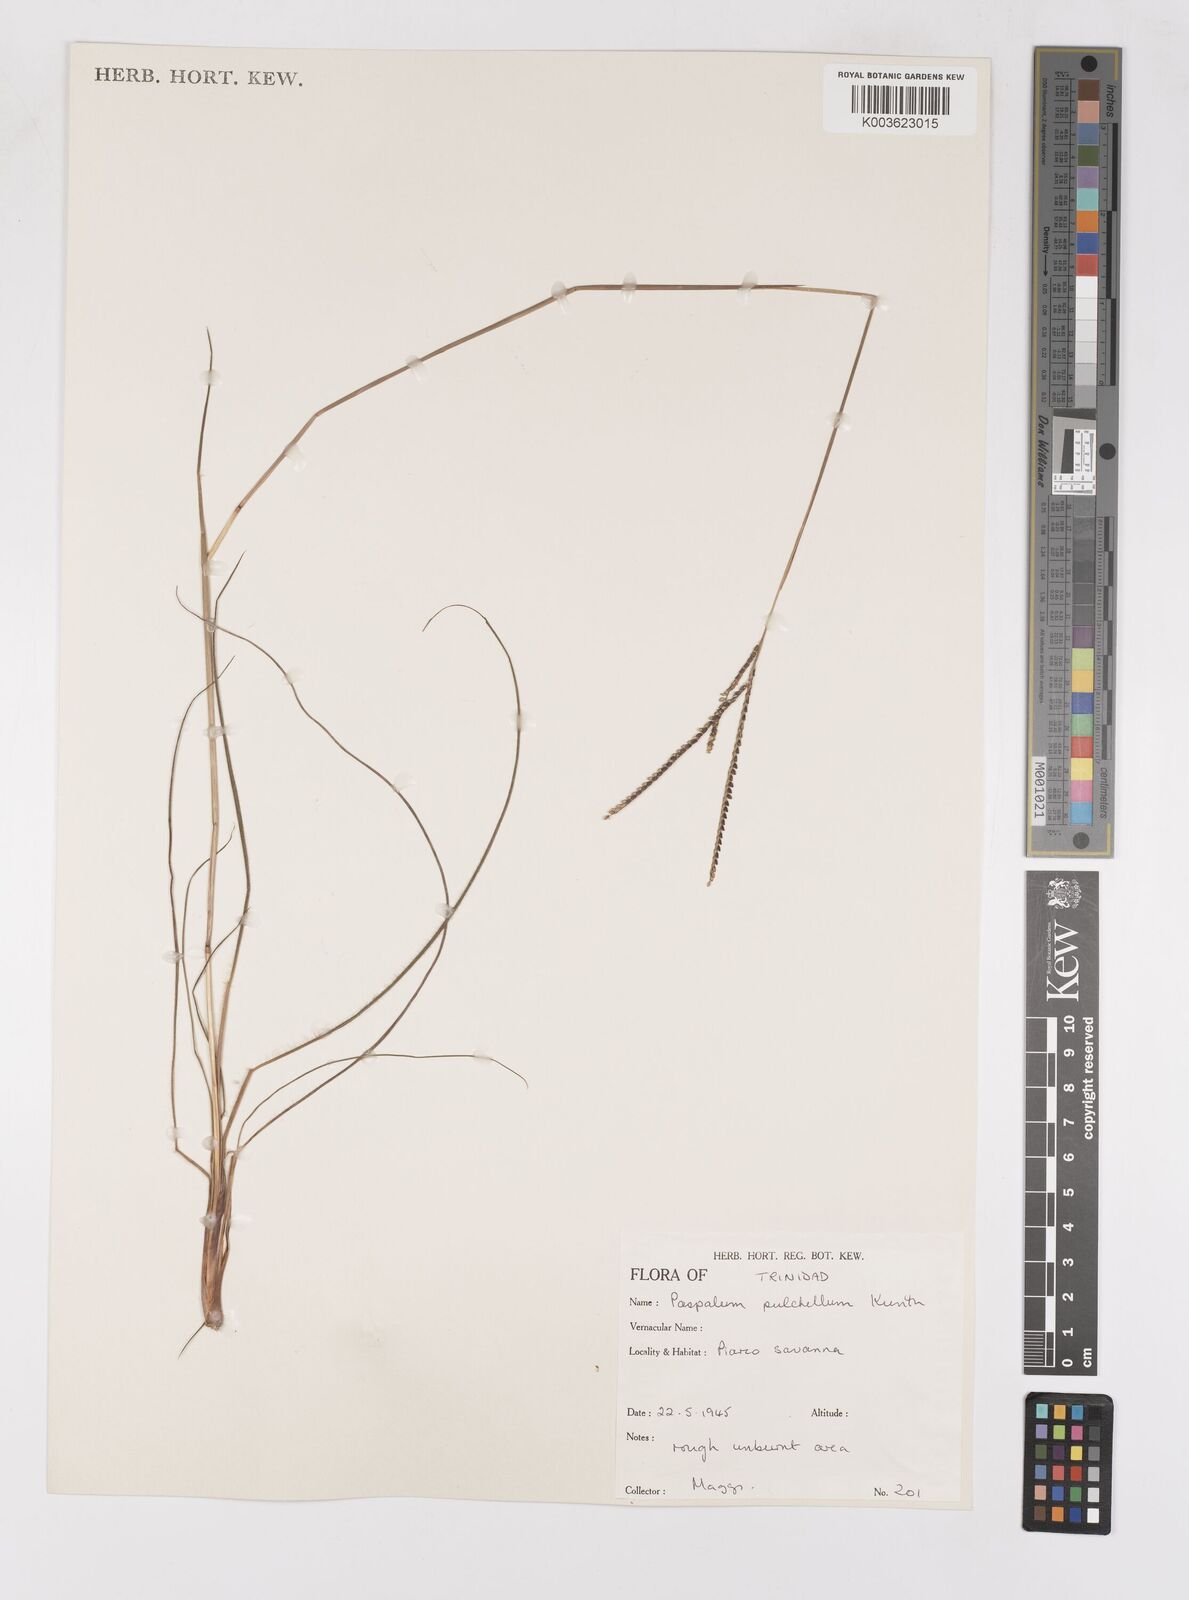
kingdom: Plantae
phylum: Tracheophyta
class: Liliopsida
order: Poales
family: Poaceae
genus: Paspalum
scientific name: Paspalum pulchellum
